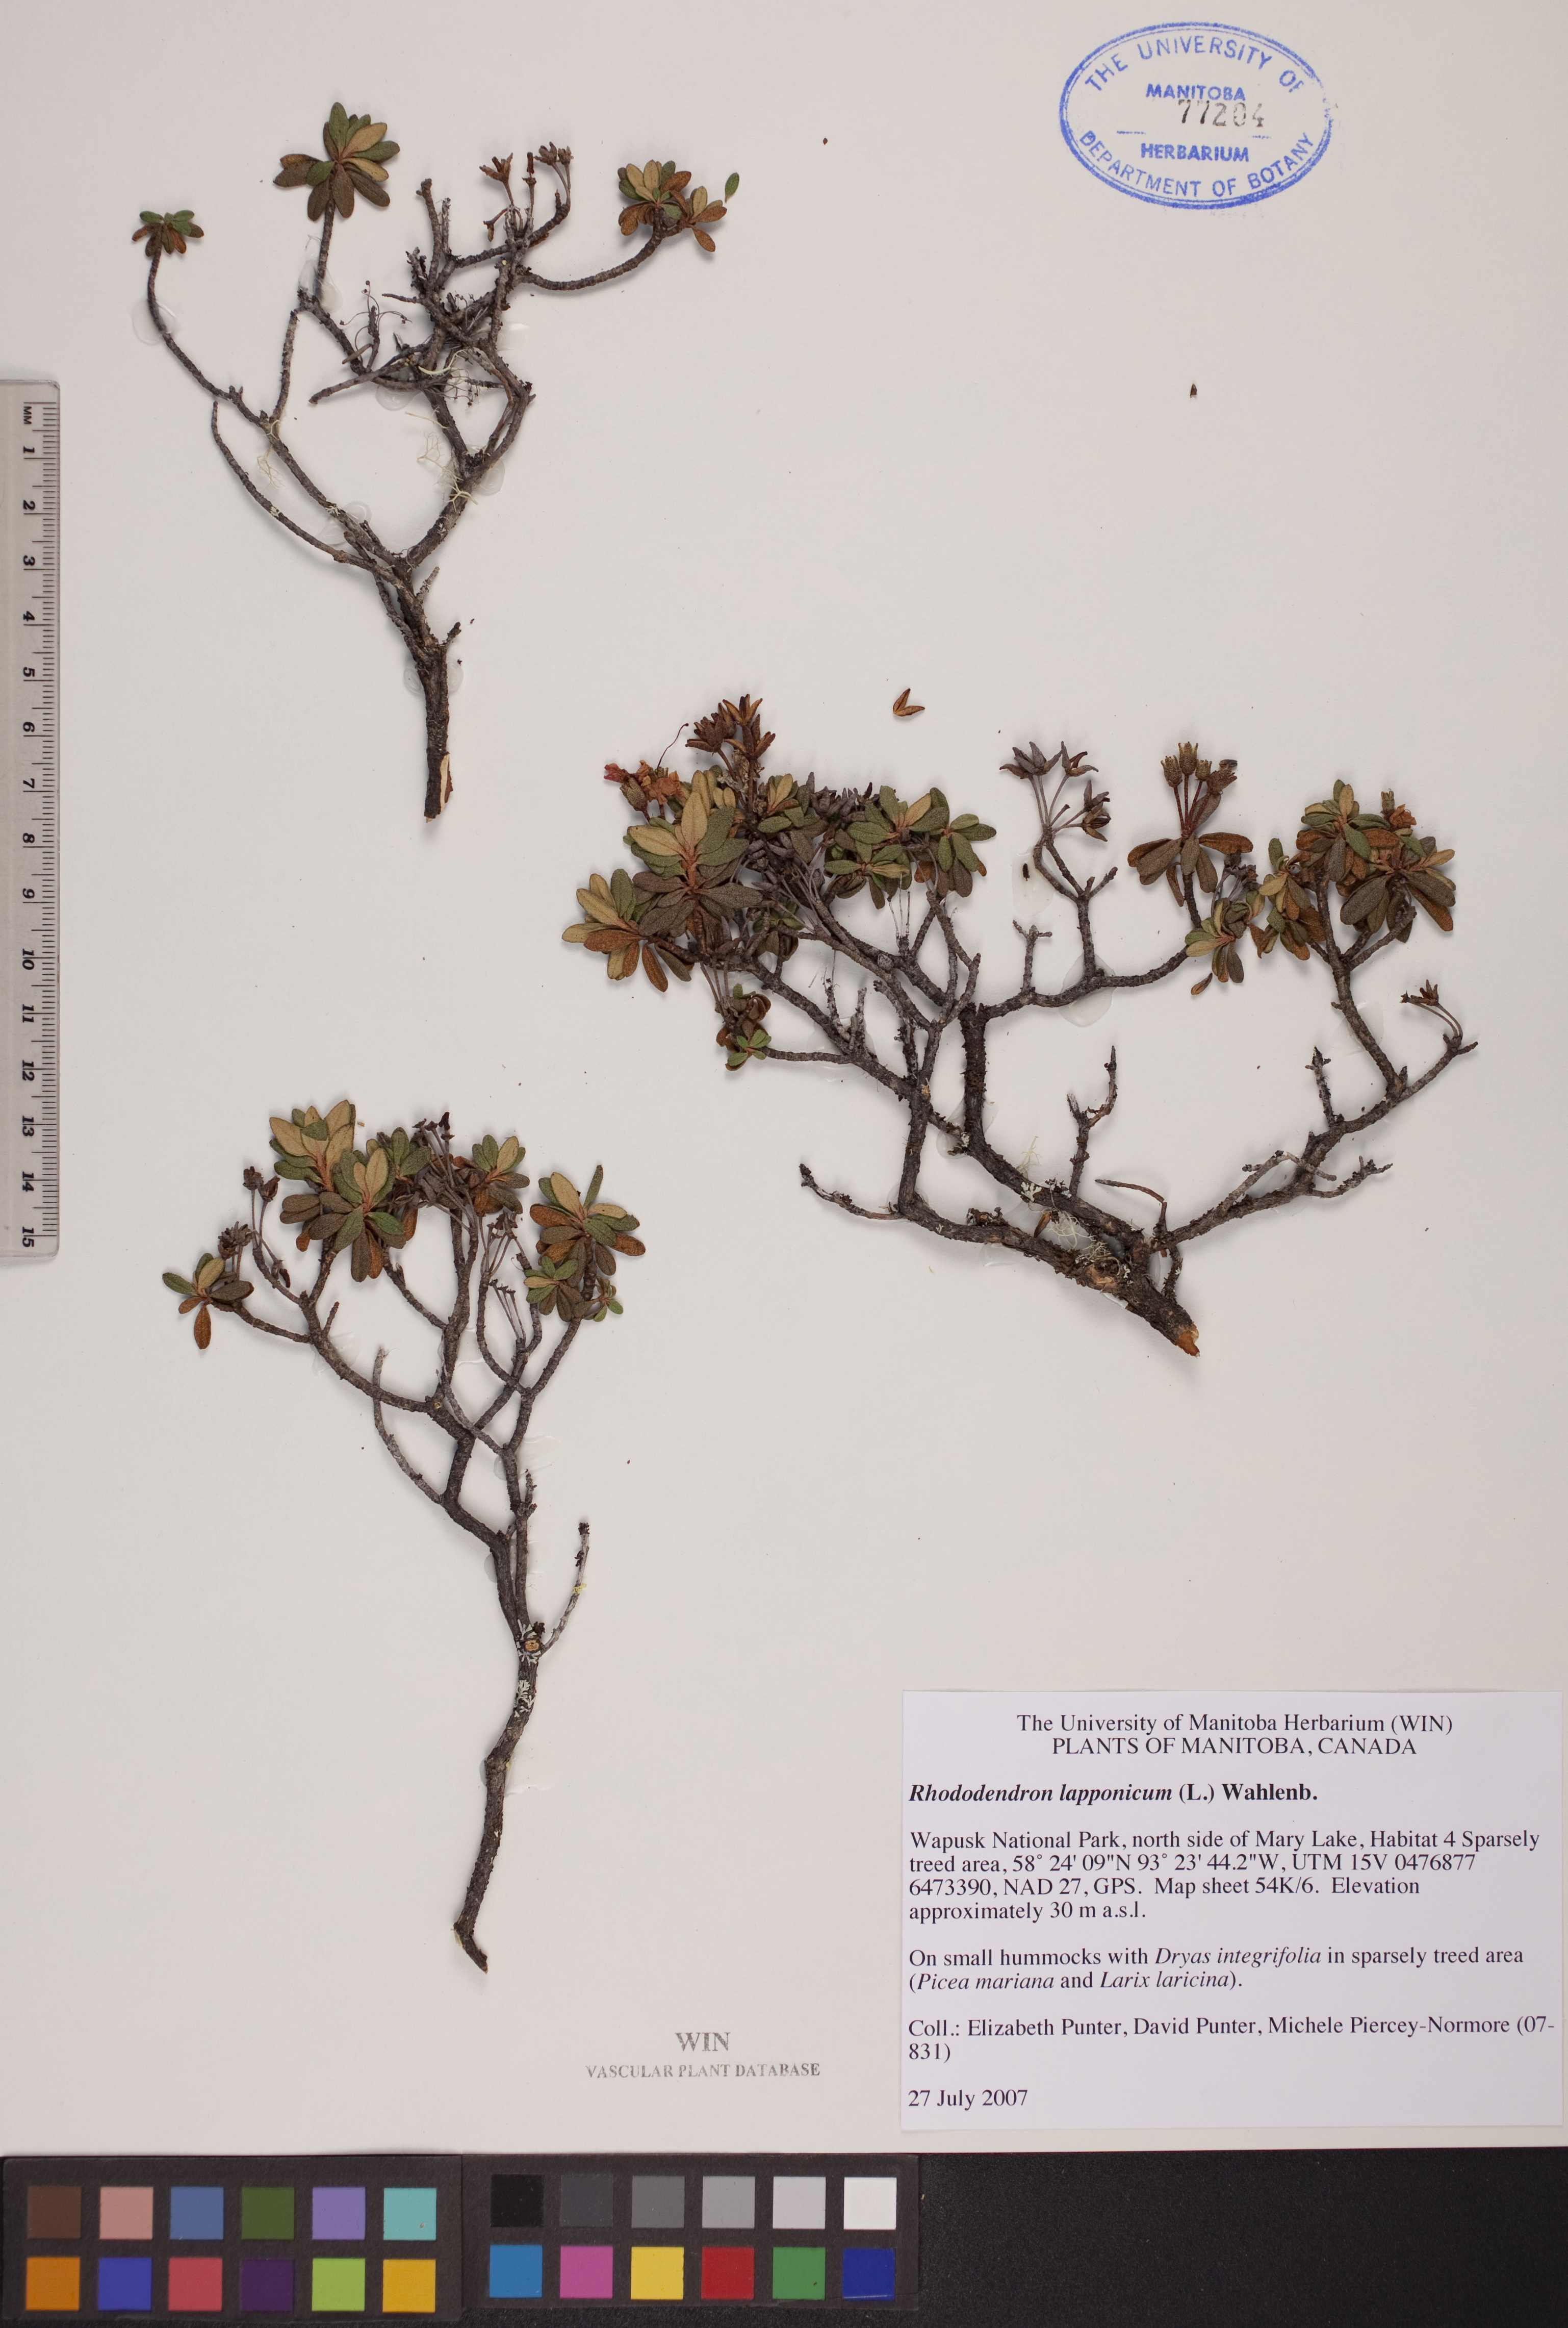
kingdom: Plantae
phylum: Tracheophyta
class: Magnoliopsida
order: Ericales
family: Ericaceae
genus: Rhododendron
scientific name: Rhododendron lapponicum
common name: Lapland rhododendron
